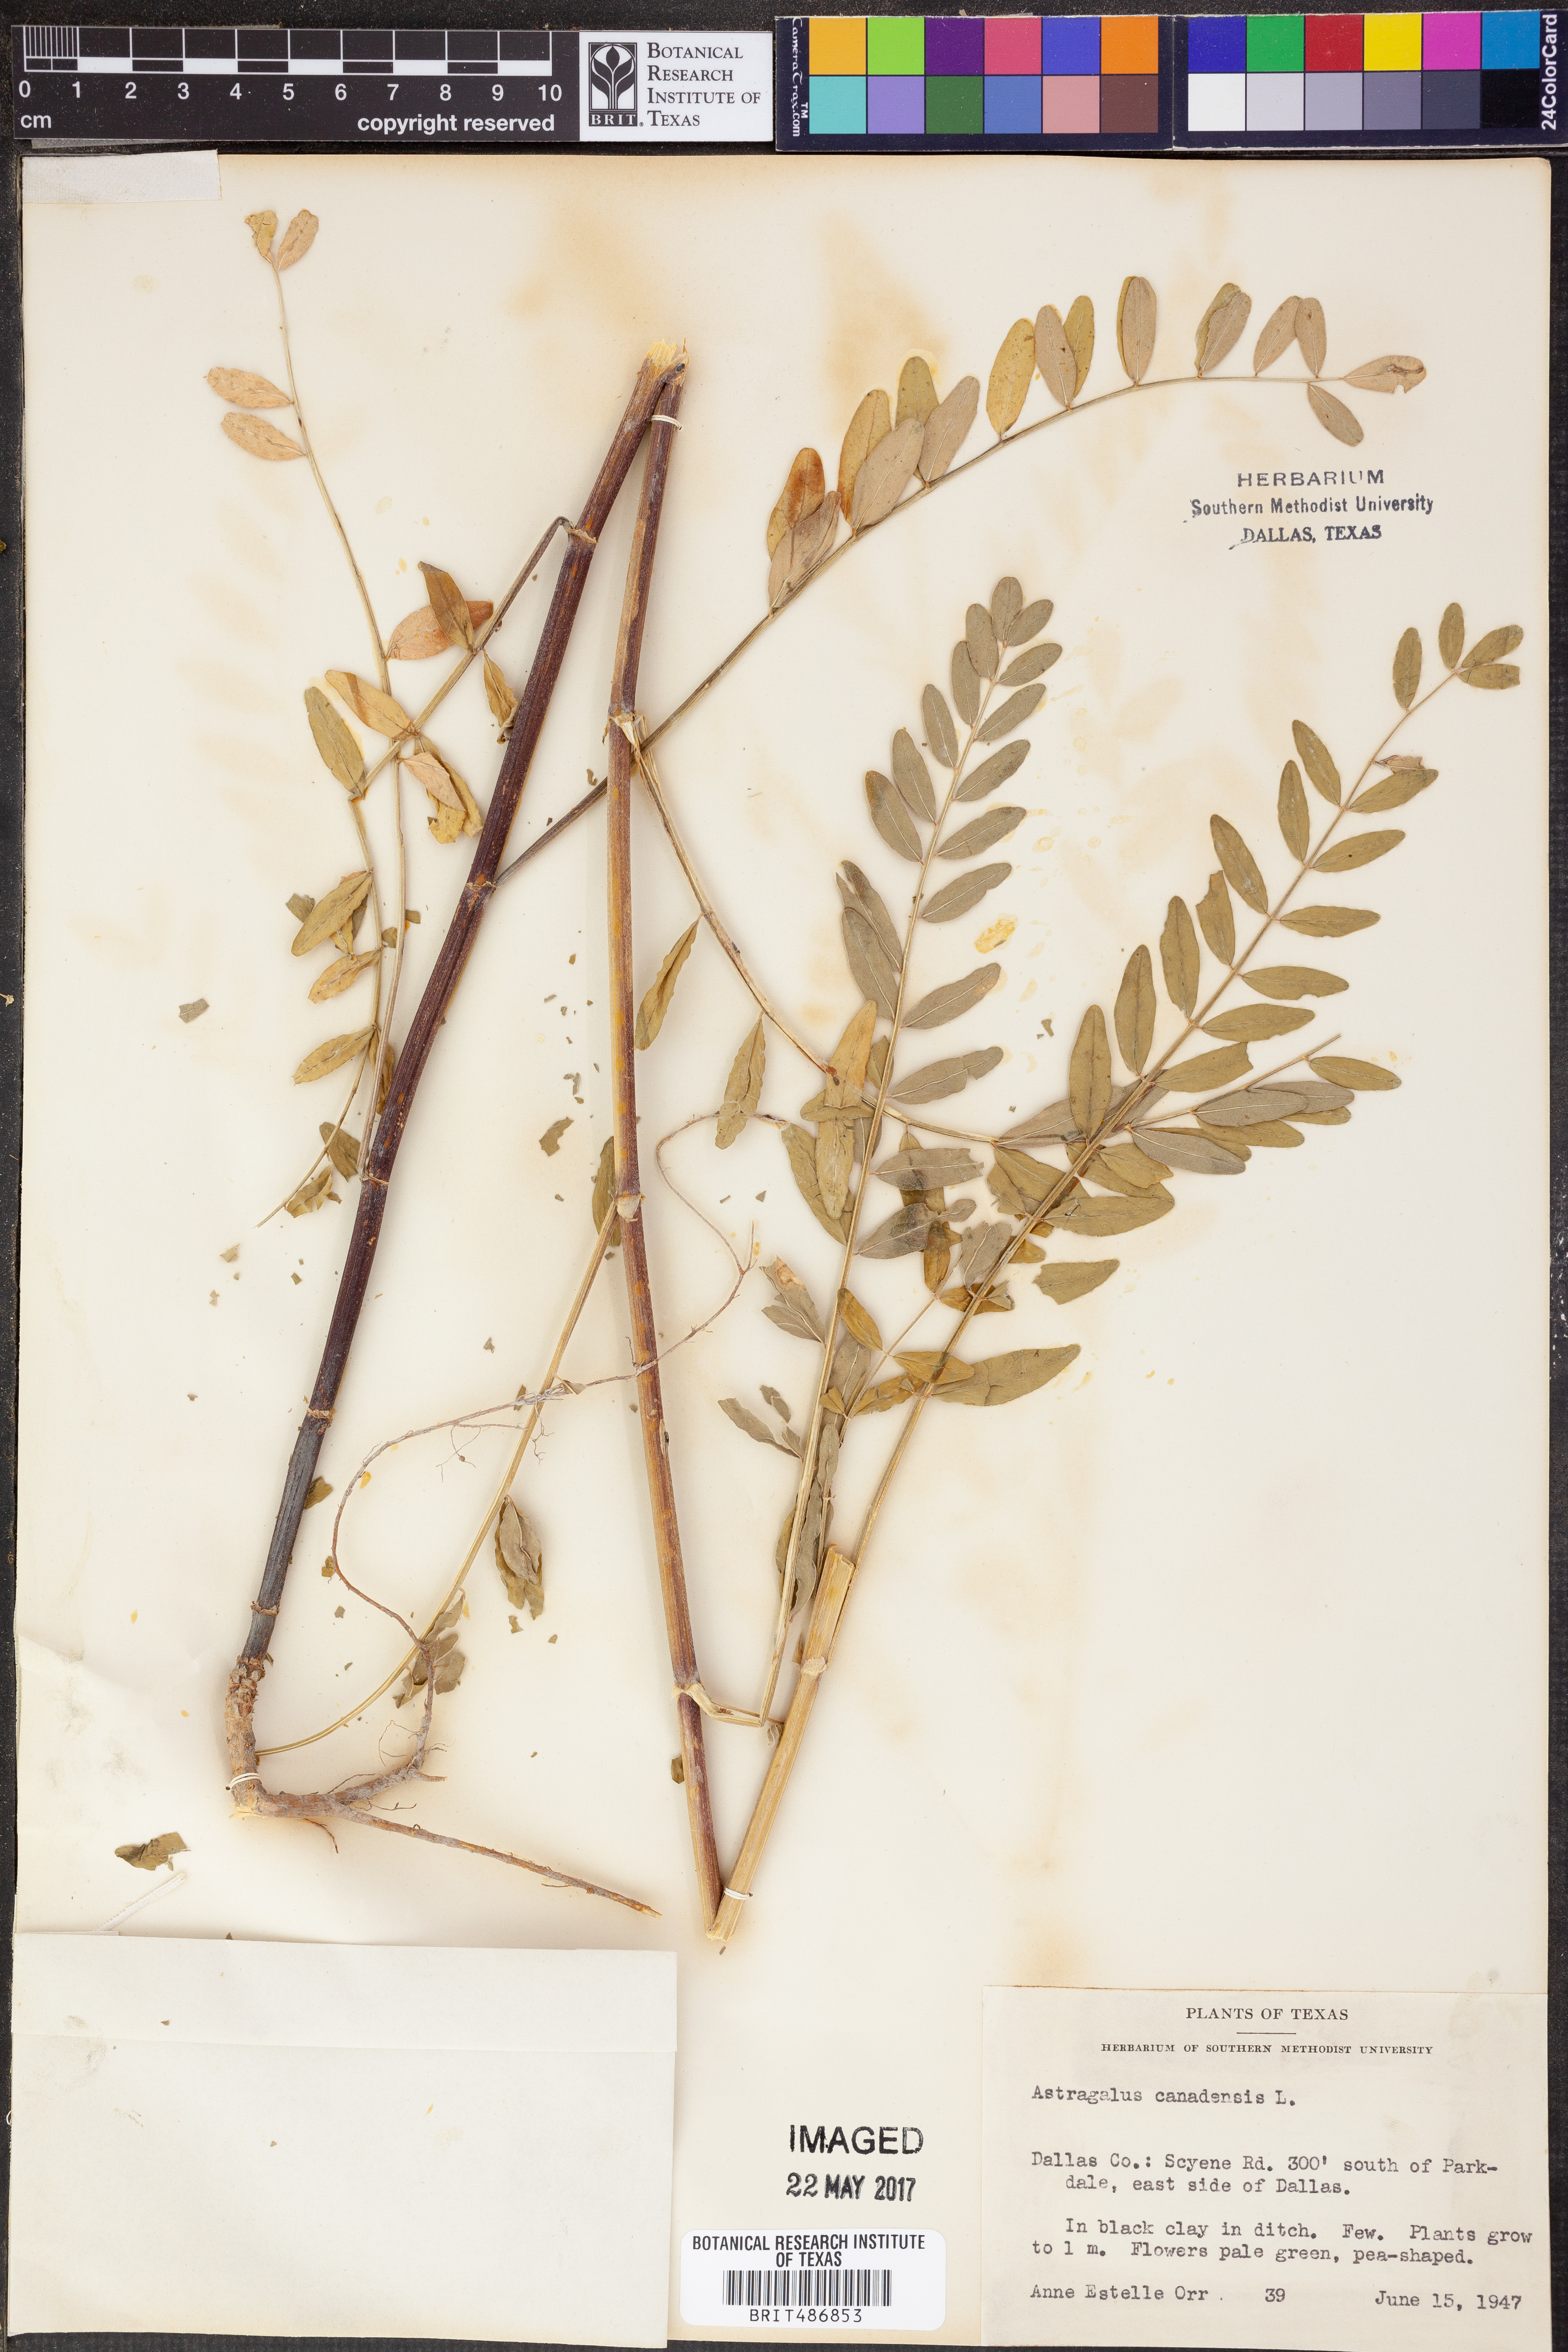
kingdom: Plantae
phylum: Tracheophyta
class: Magnoliopsida
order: Fabales
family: Fabaceae
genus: Astragalus
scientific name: Astragalus canadensis
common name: Canada milk-vetch
